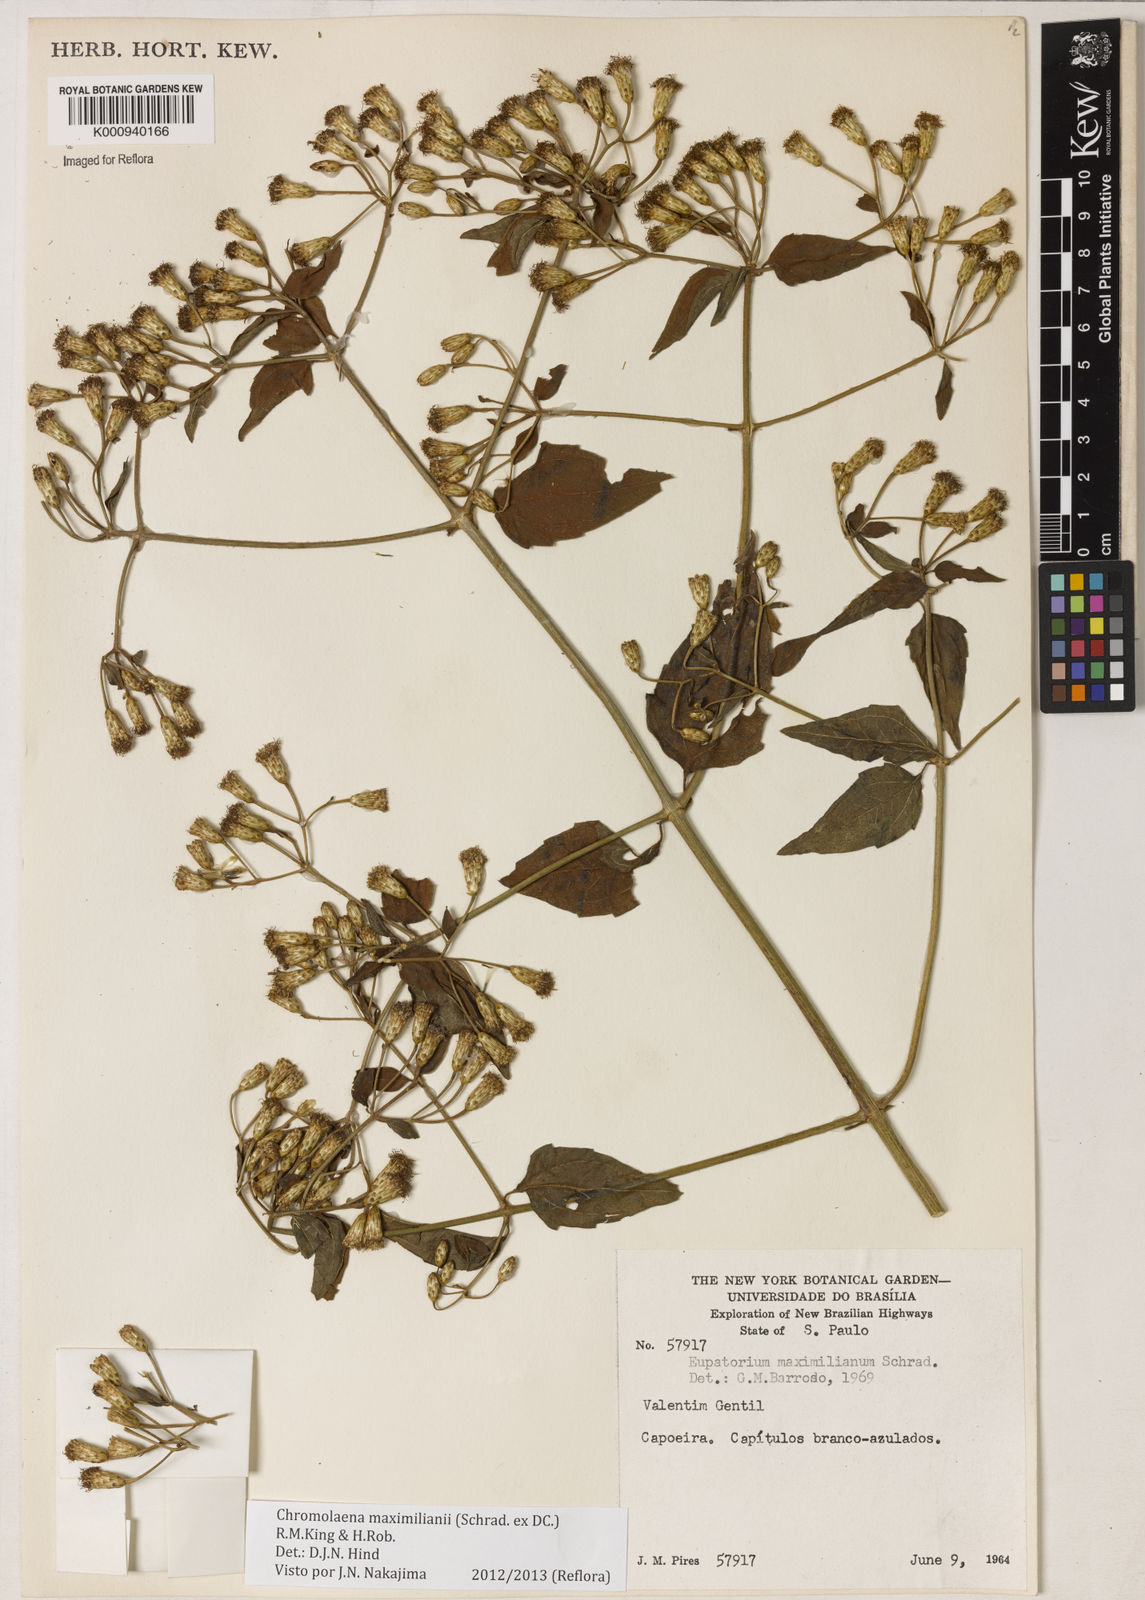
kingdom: Plantae
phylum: Tracheophyta
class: Magnoliopsida
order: Asterales
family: Asteraceae
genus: Chromolaena
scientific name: Chromolaena maximiliani
